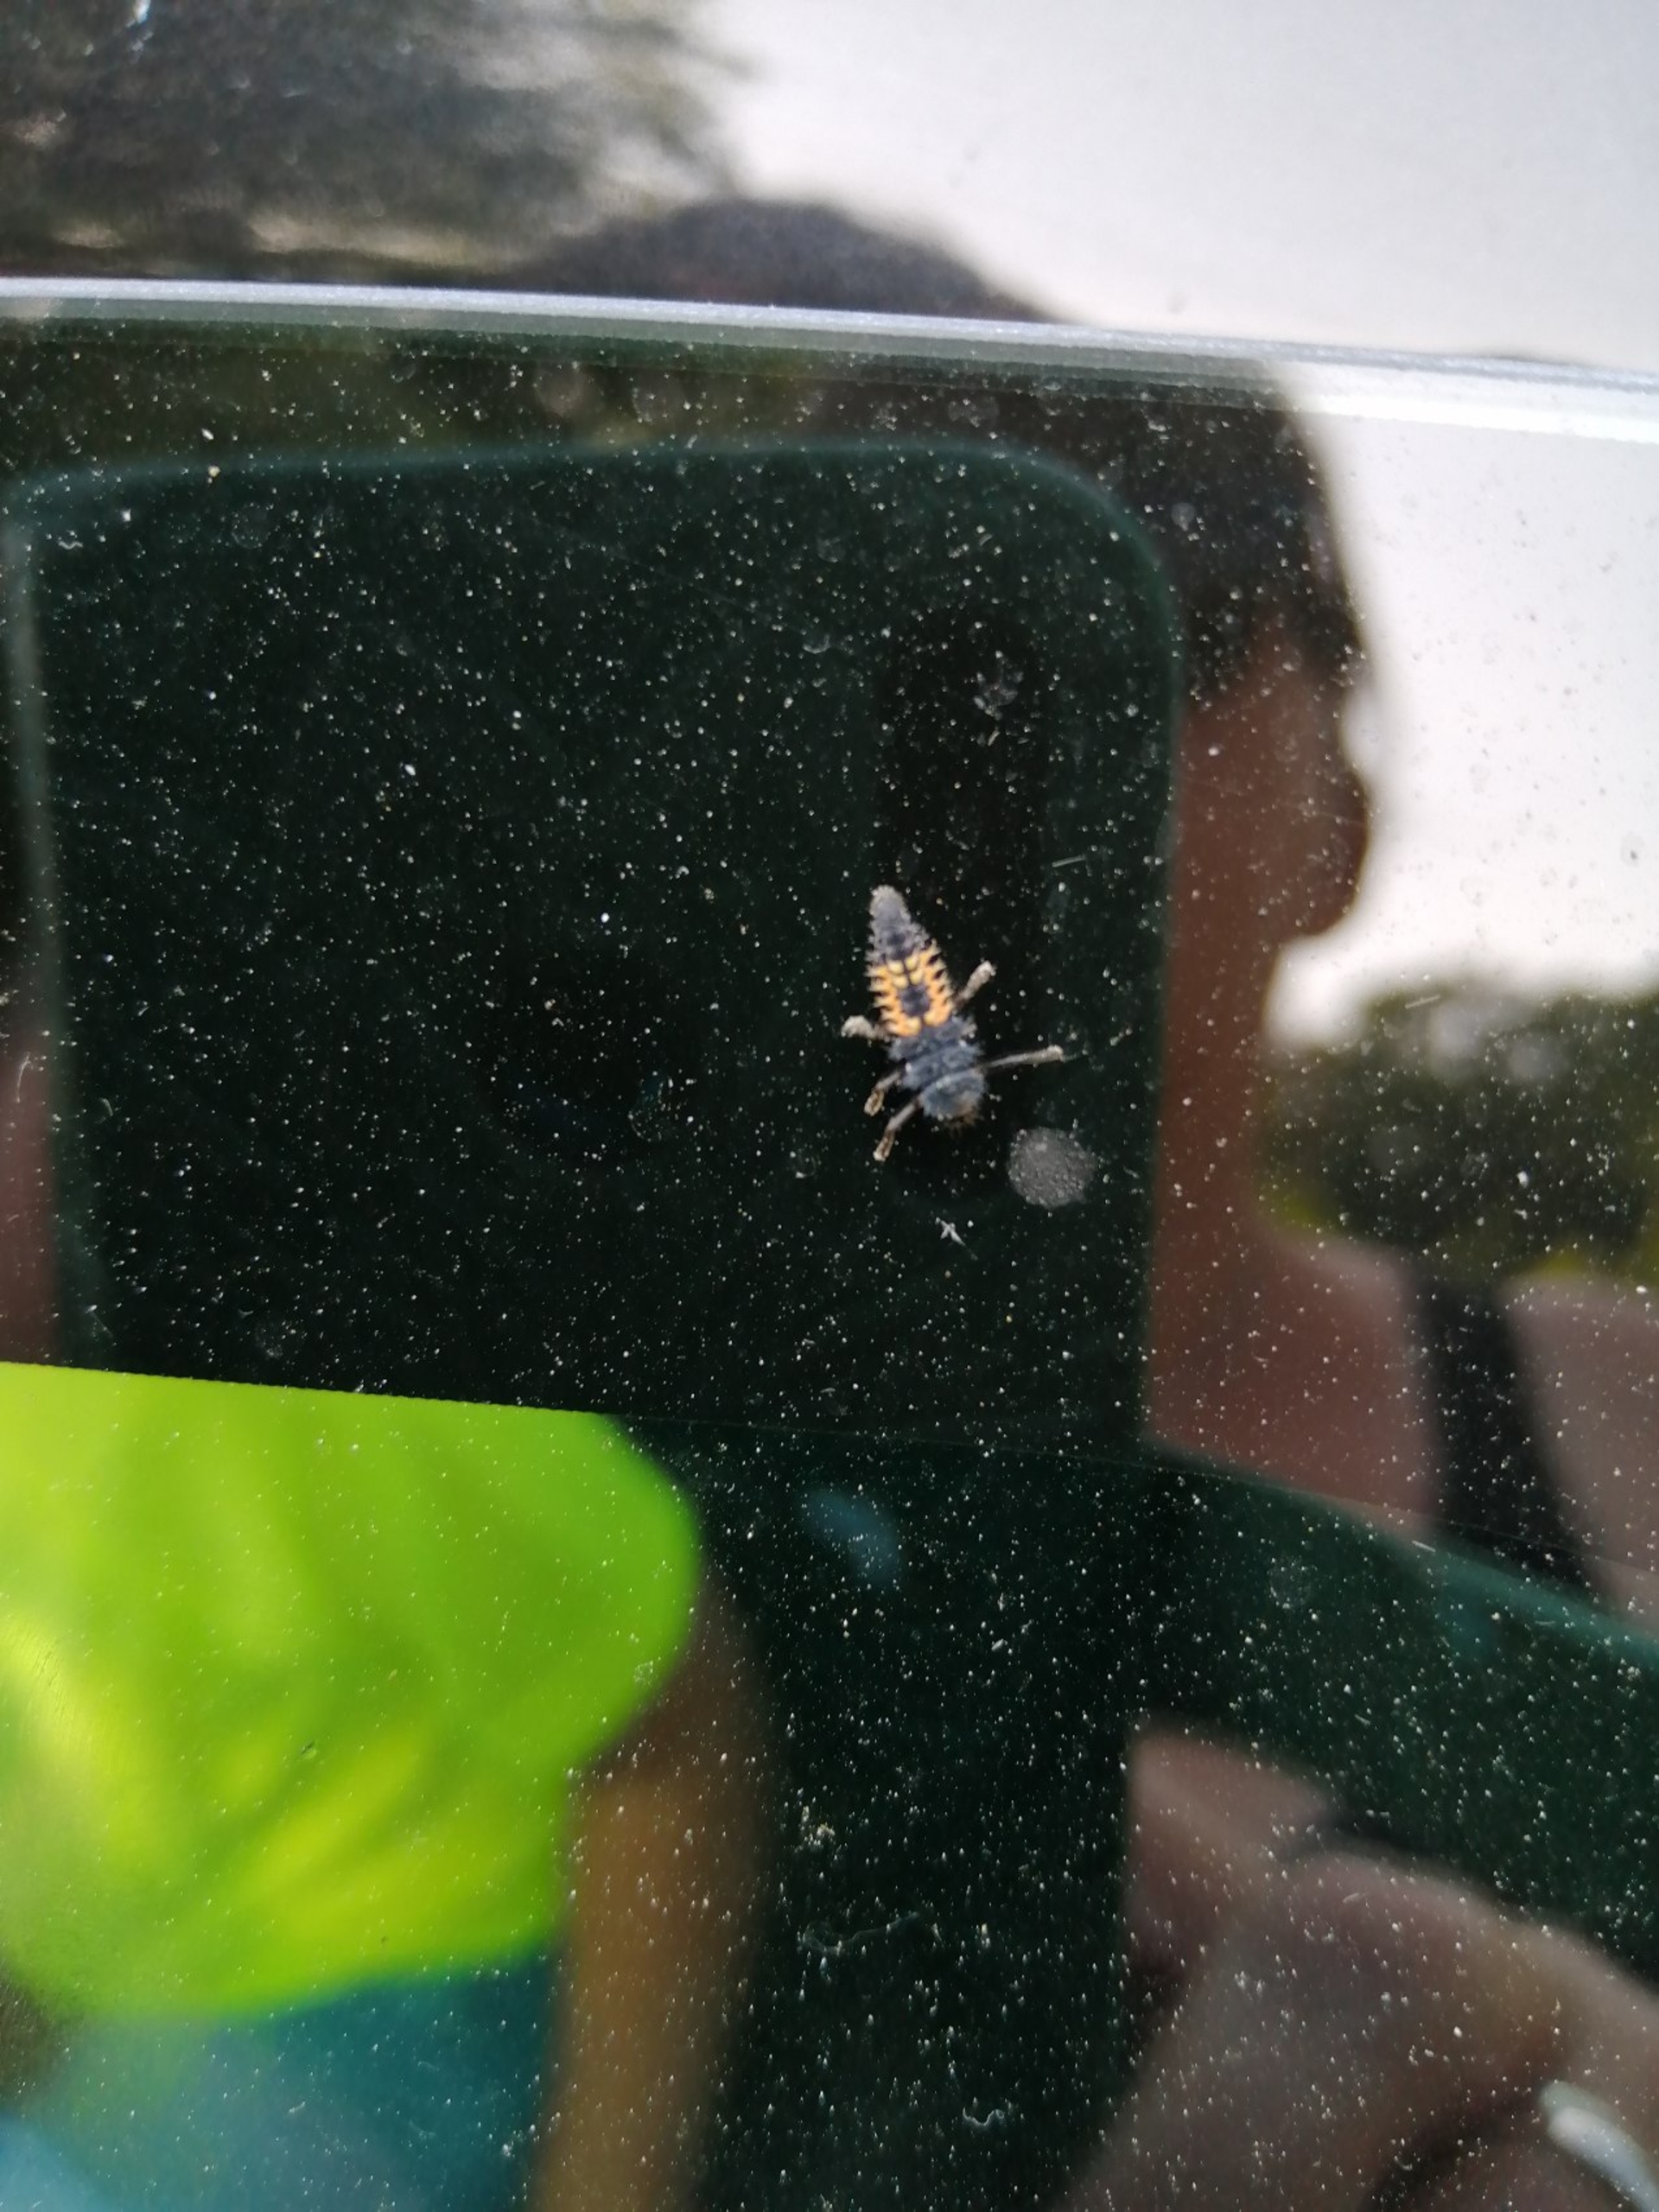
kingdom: Animalia
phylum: Arthropoda
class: Insecta
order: Coleoptera
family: Coccinellidae
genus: Harmonia
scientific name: Harmonia axyridis
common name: Harlekinmariehøne
